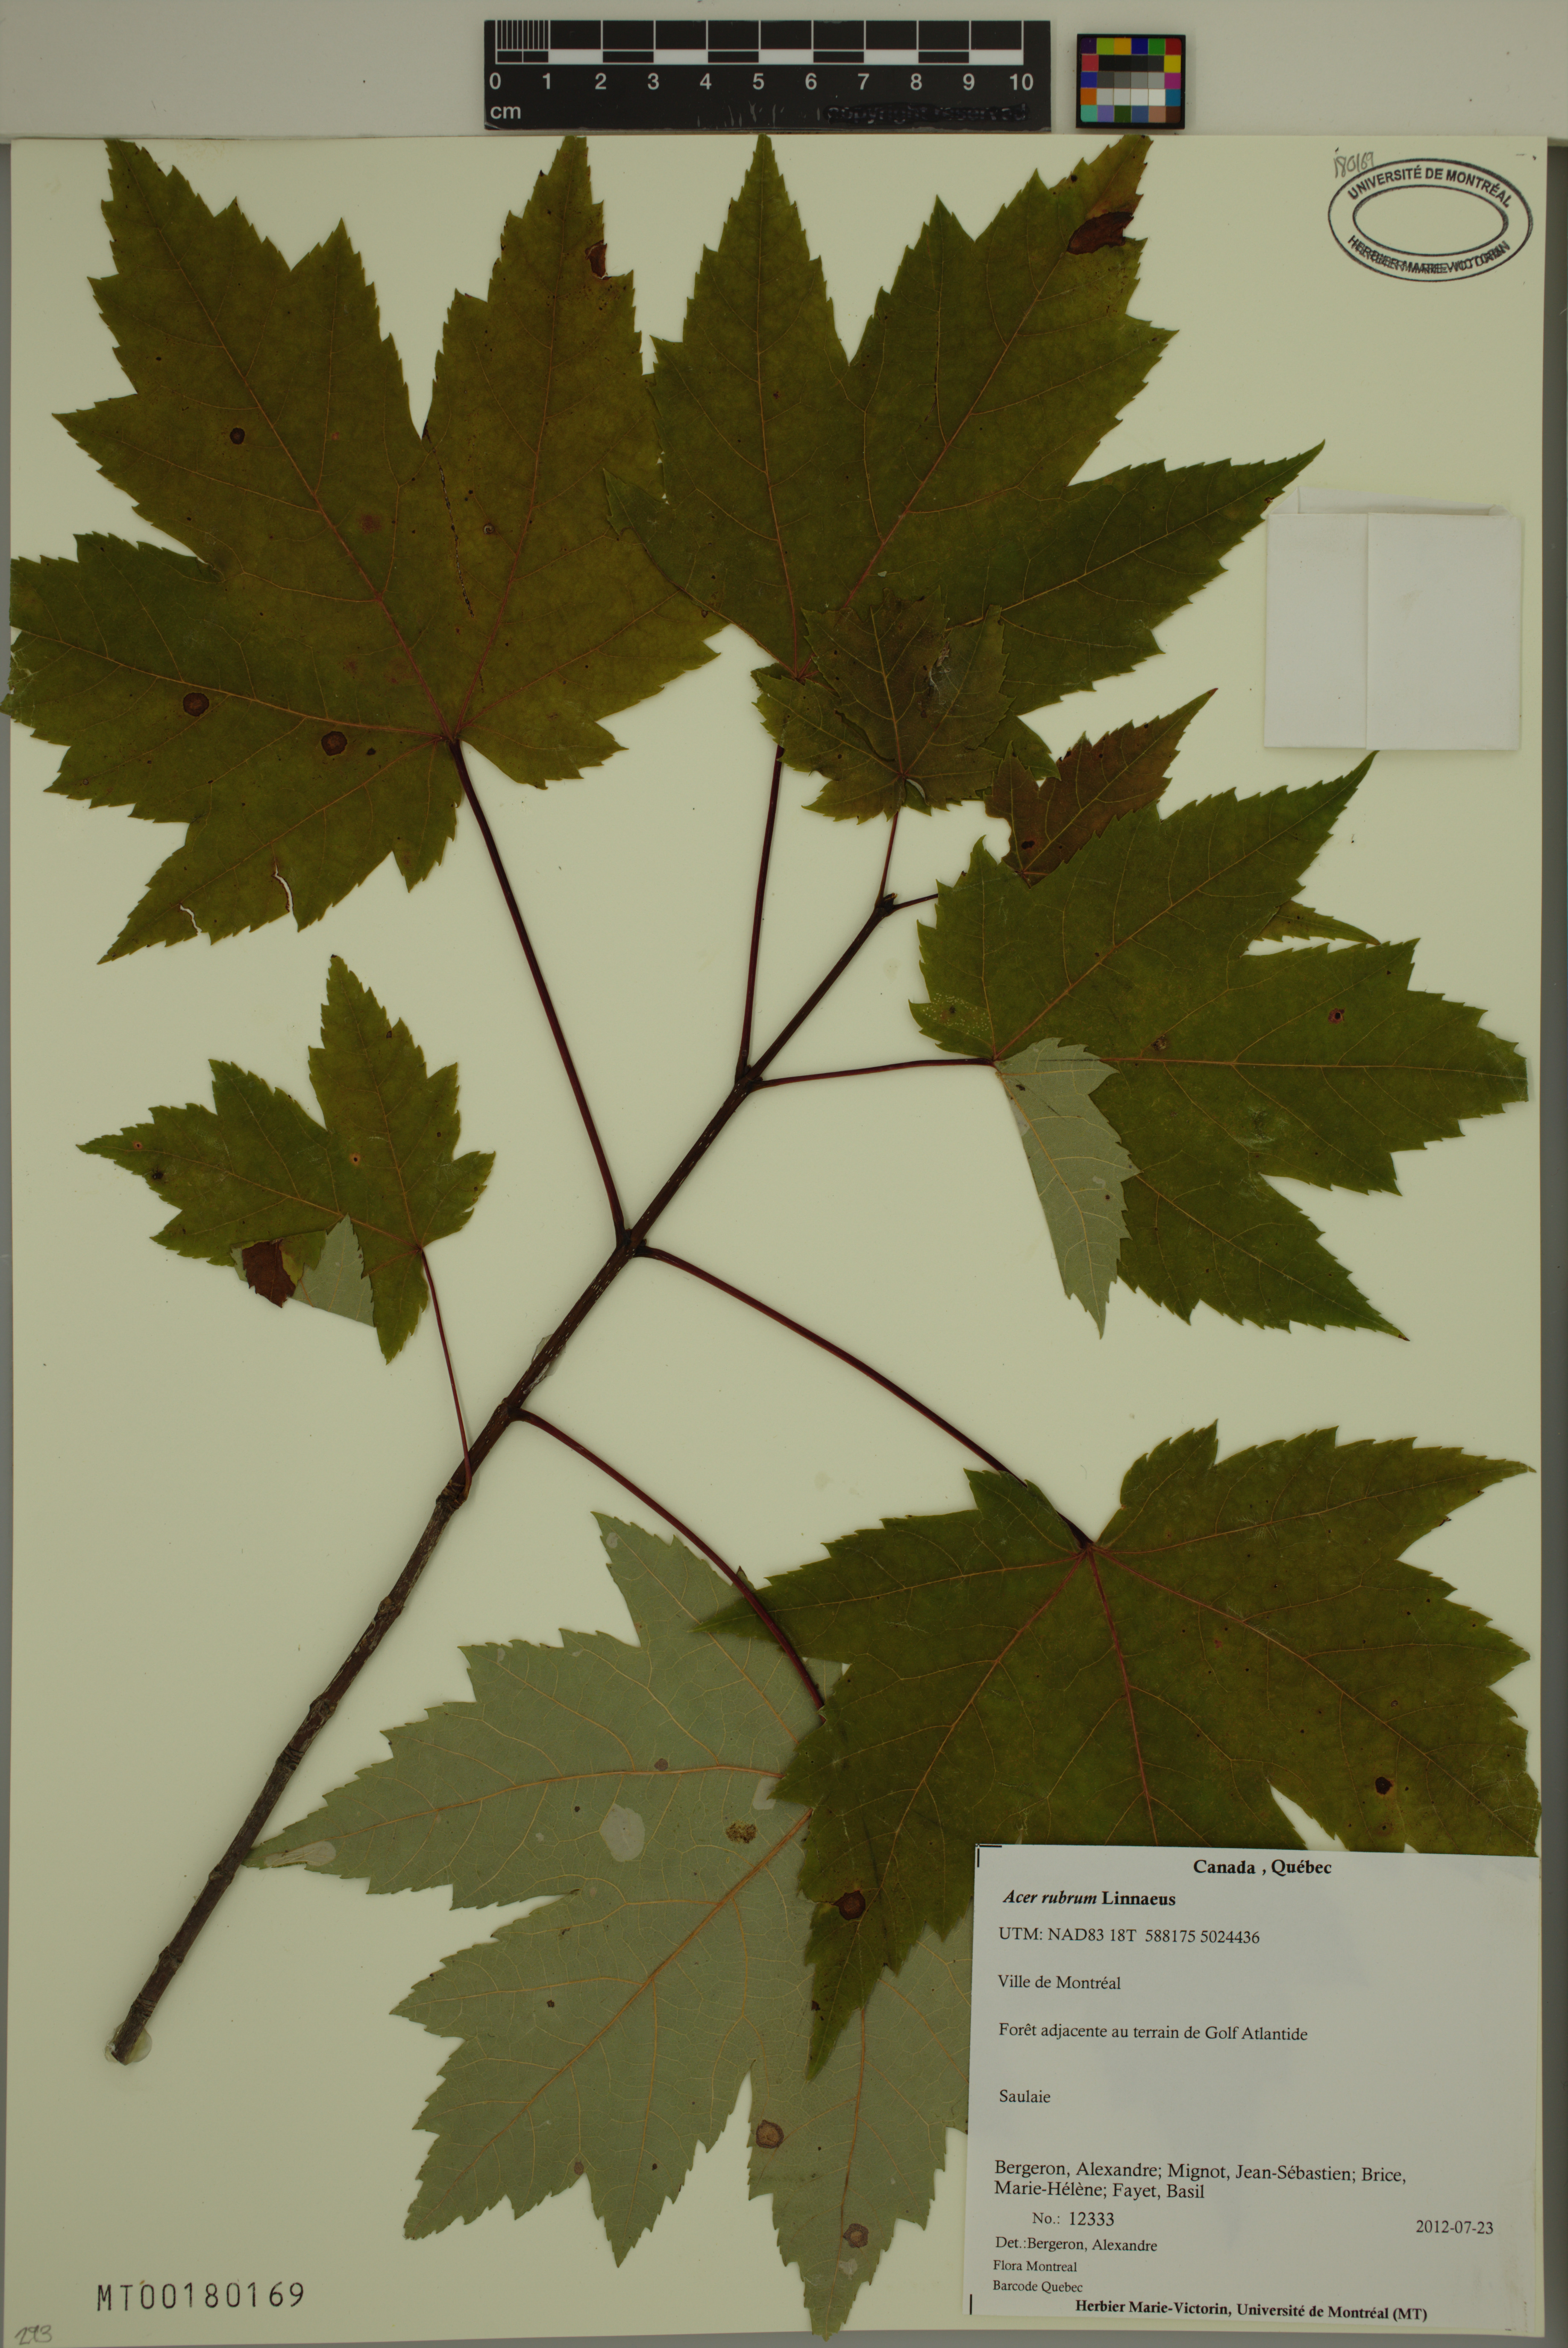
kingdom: Plantae
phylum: Tracheophyta
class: Magnoliopsida
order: Sapindales
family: Sapindaceae
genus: Acer
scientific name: Acer rubrum
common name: Red maple
